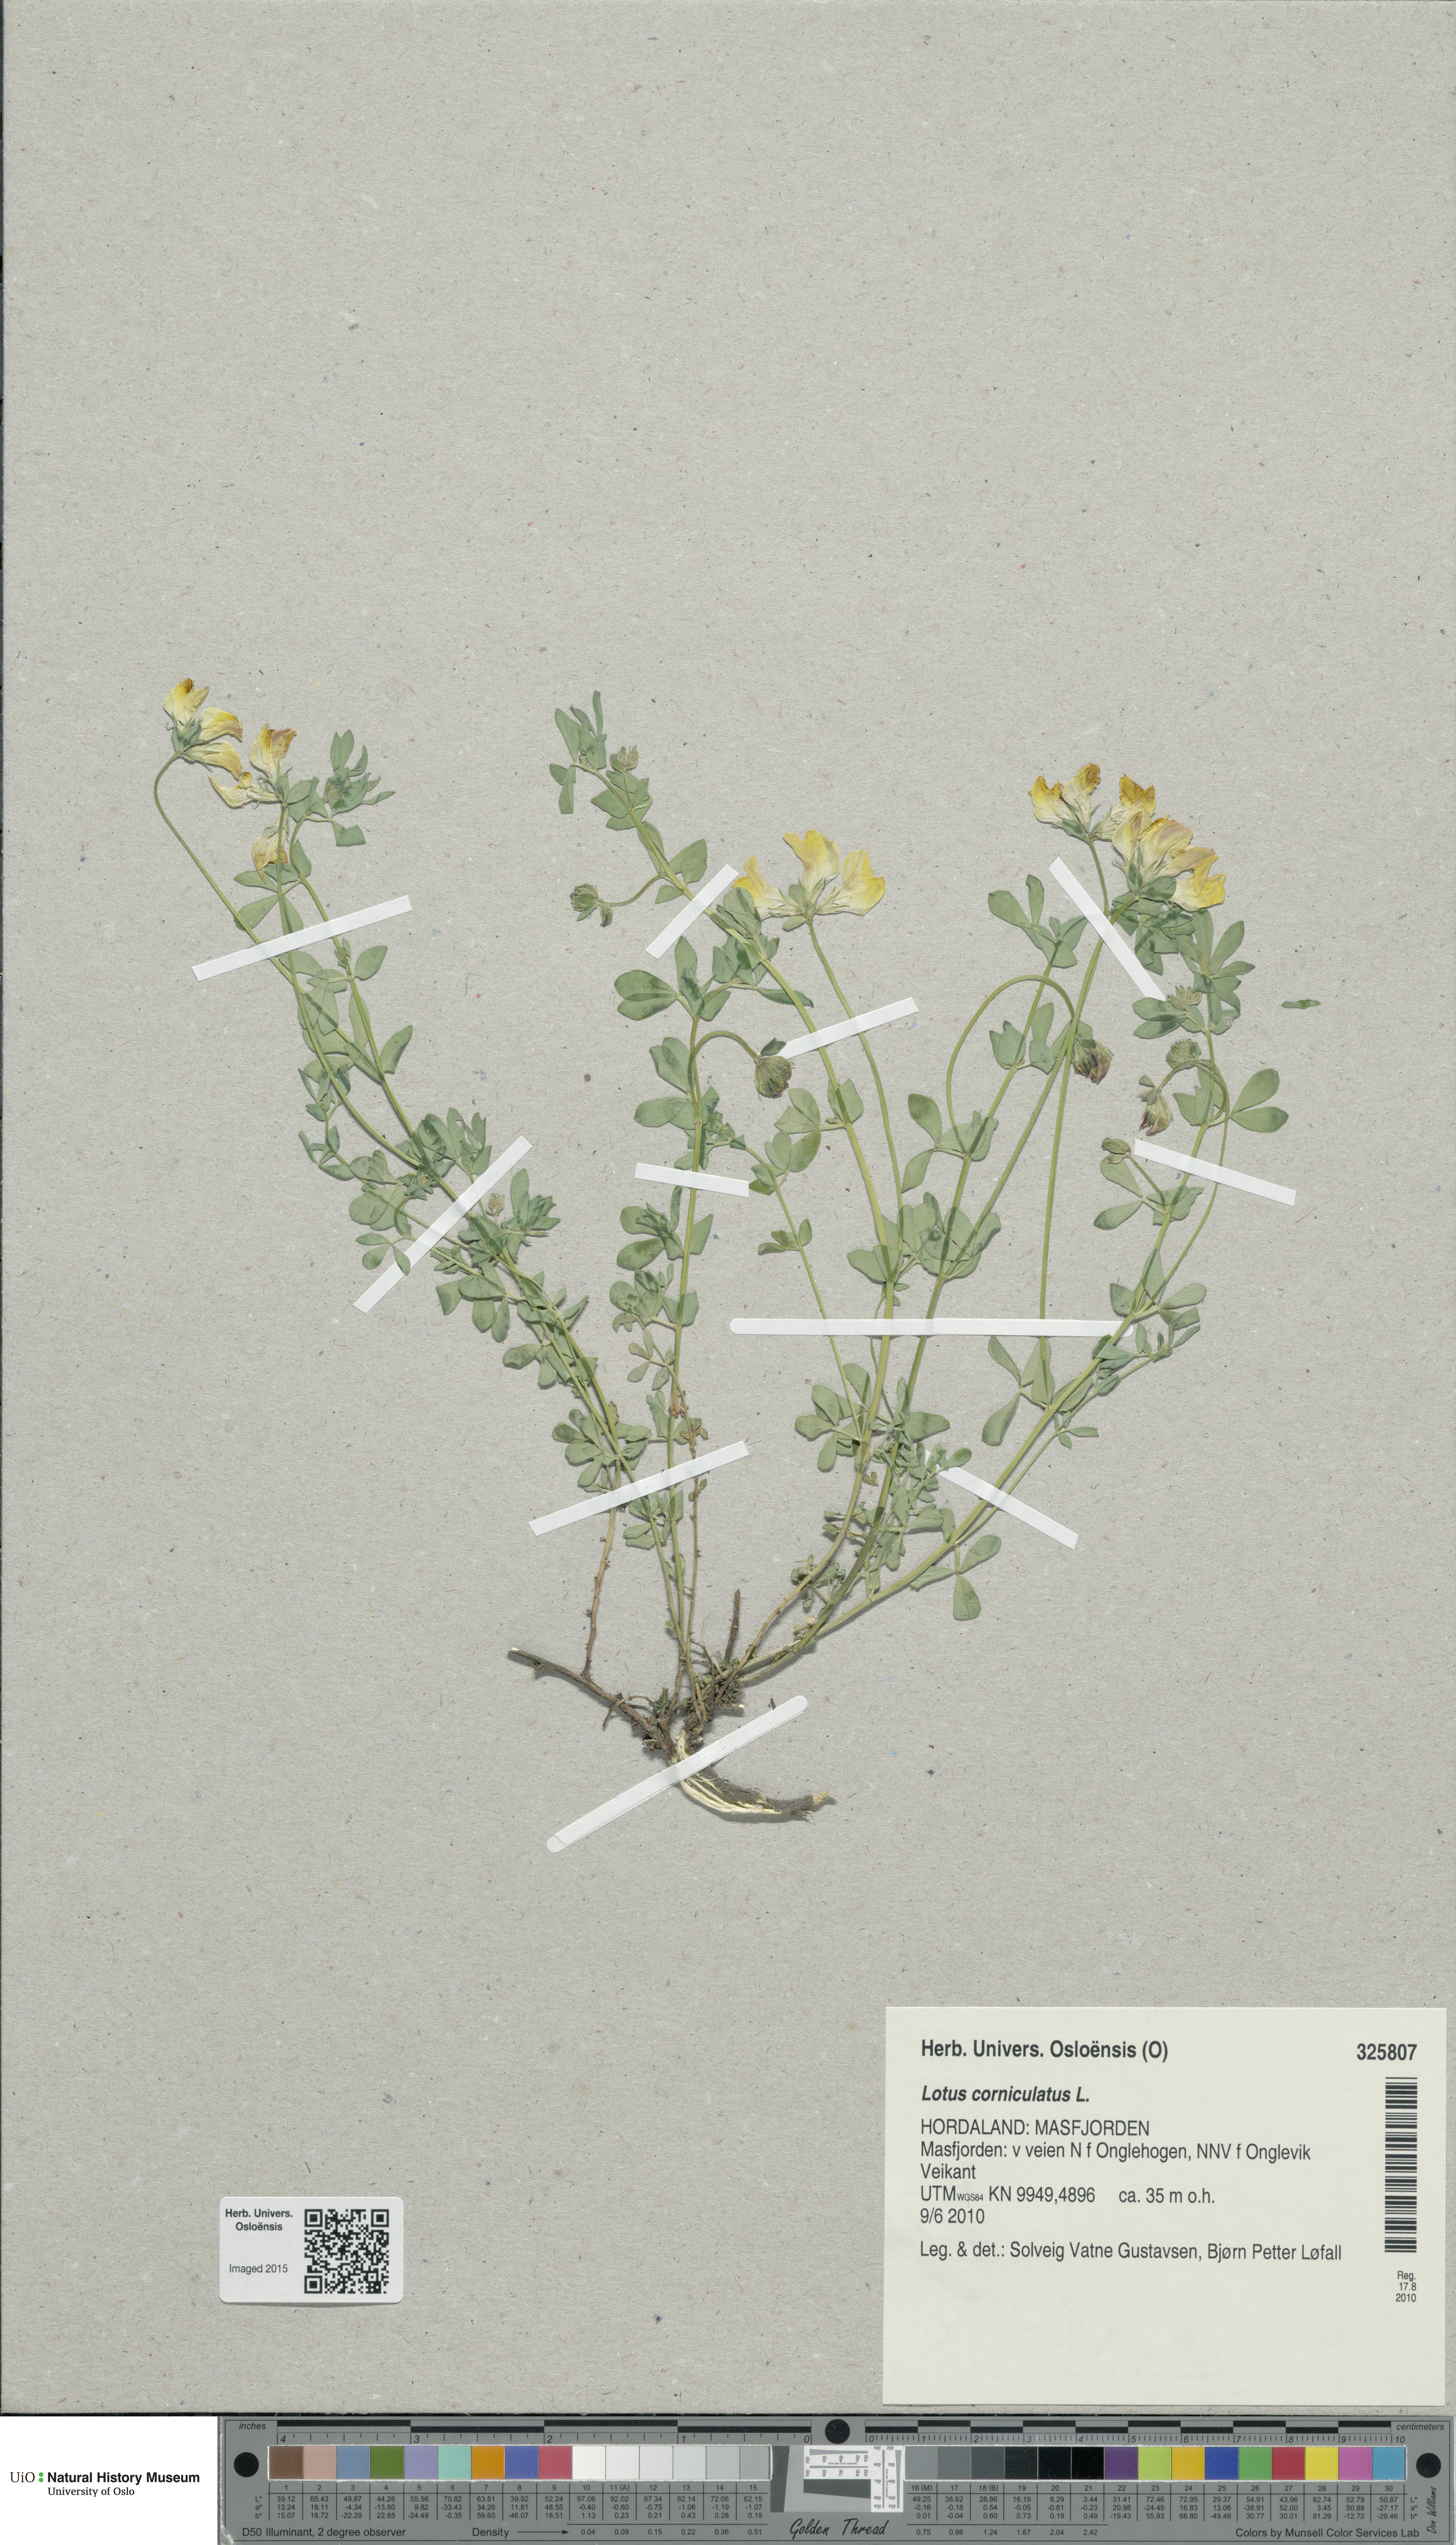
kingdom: Plantae
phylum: Tracheophyta
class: Magnoliopsida
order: Fabales
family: Fabaceae
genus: Lotus
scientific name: Lotus corniculatus
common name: Common bird's-foot-trefoil
